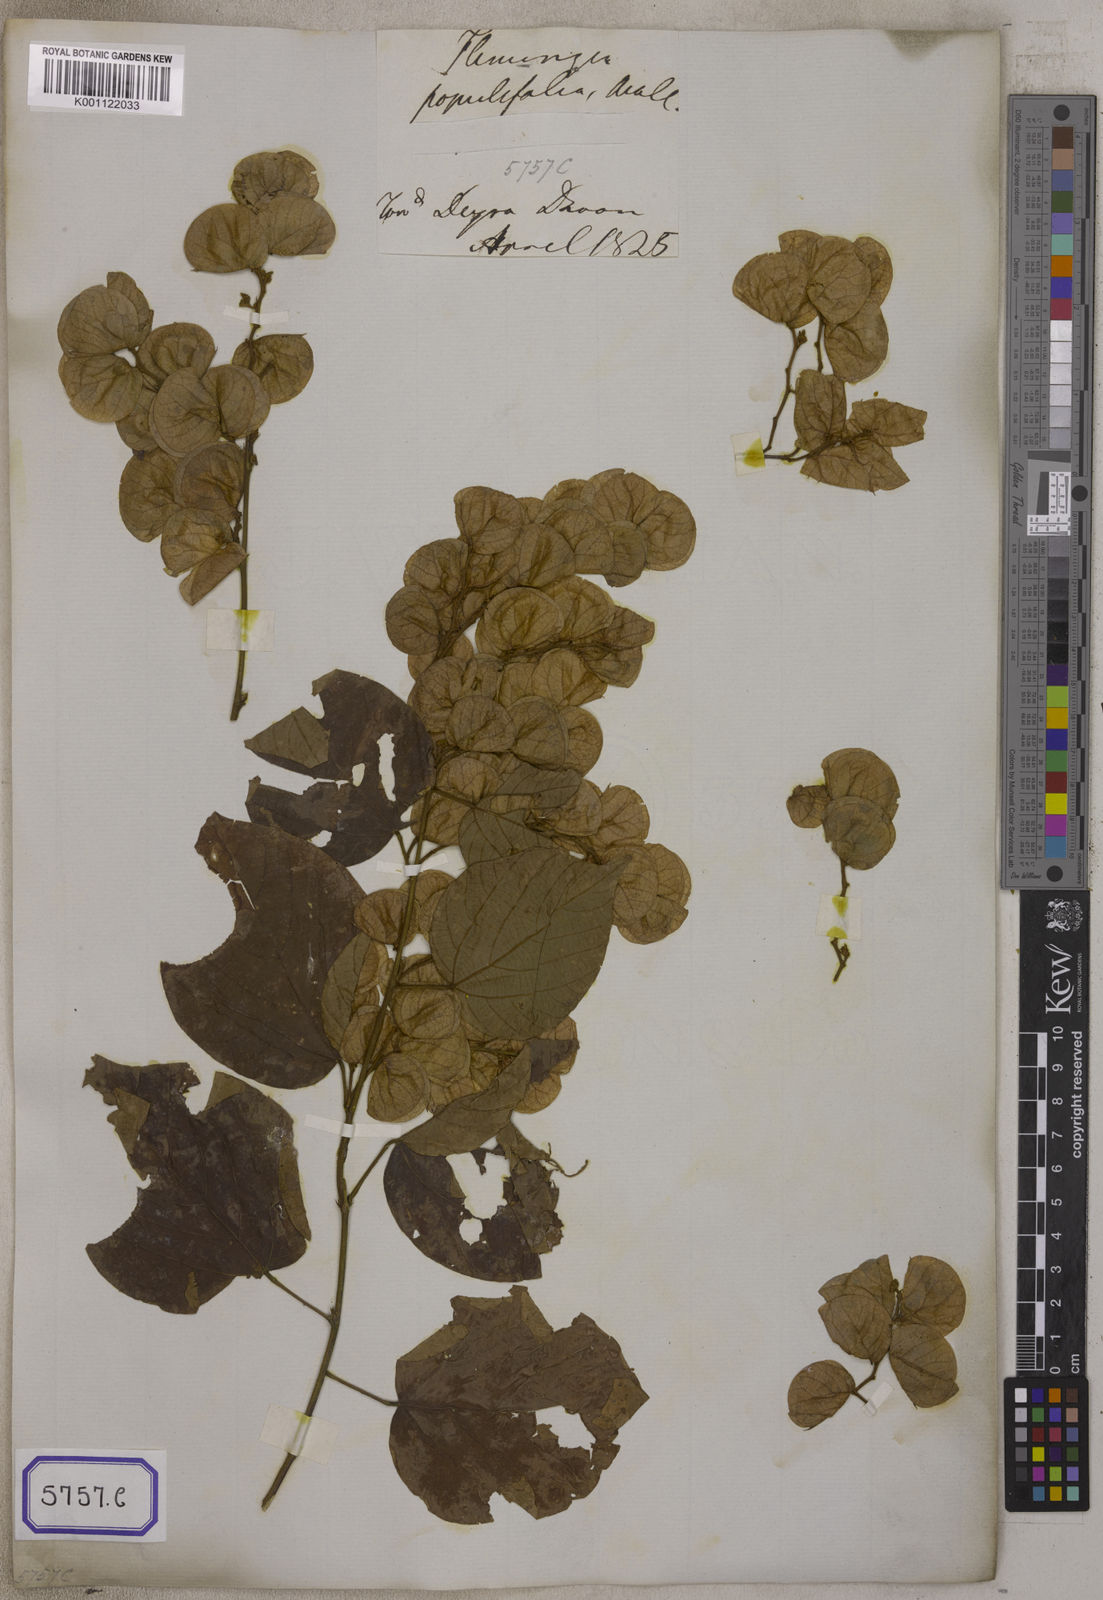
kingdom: Plantae
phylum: Tracheophyta
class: Magnoliopsida
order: Fabales
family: Fabaceae
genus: Flemingia
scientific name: Flemingia
